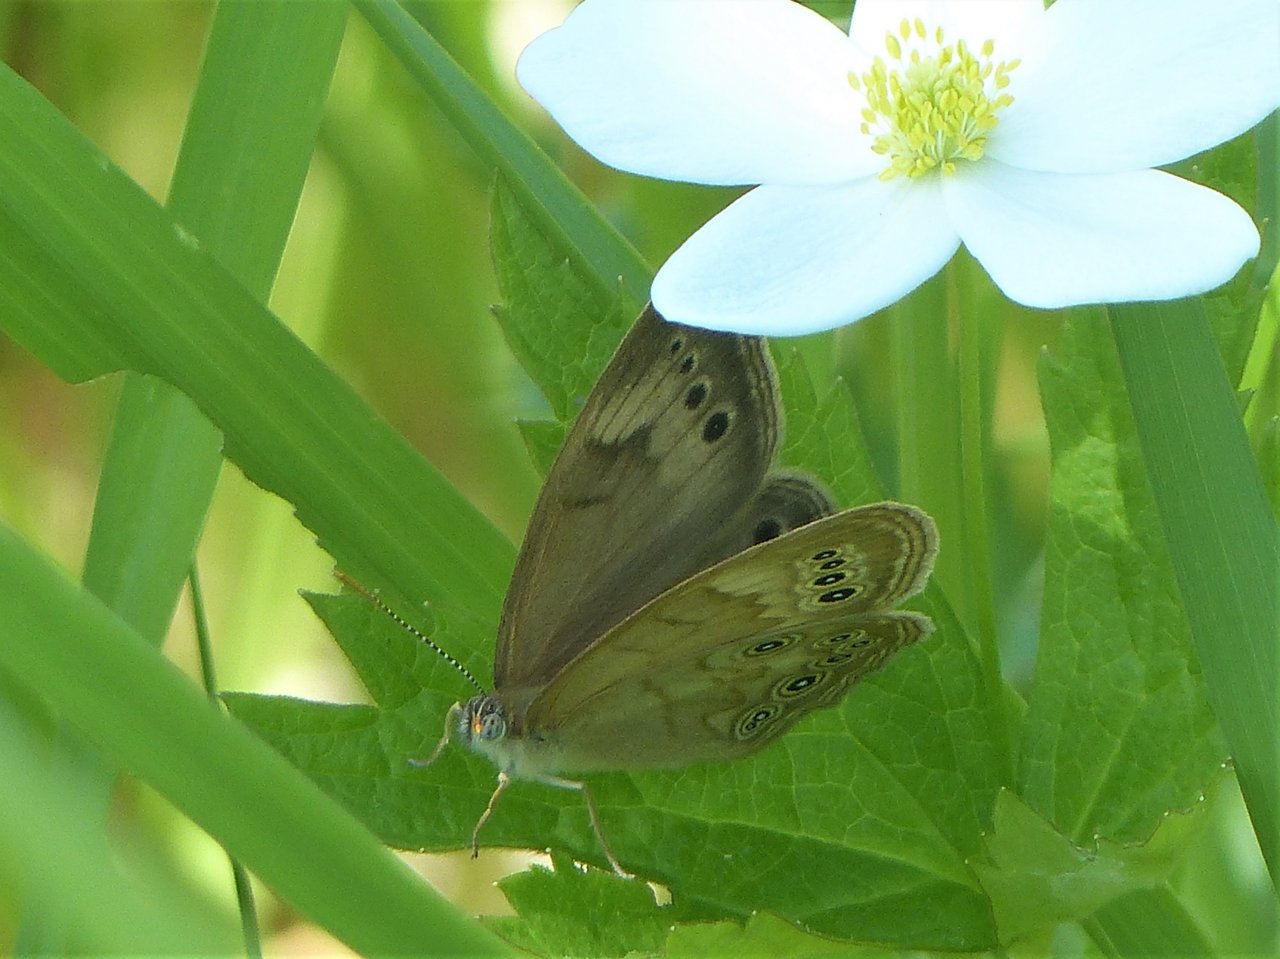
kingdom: Animalia
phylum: Arthropoda
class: Insecta
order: Lepidoptera
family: Nymphalidae
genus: Lethe
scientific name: Lethe eurydice
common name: Eyed Brown
